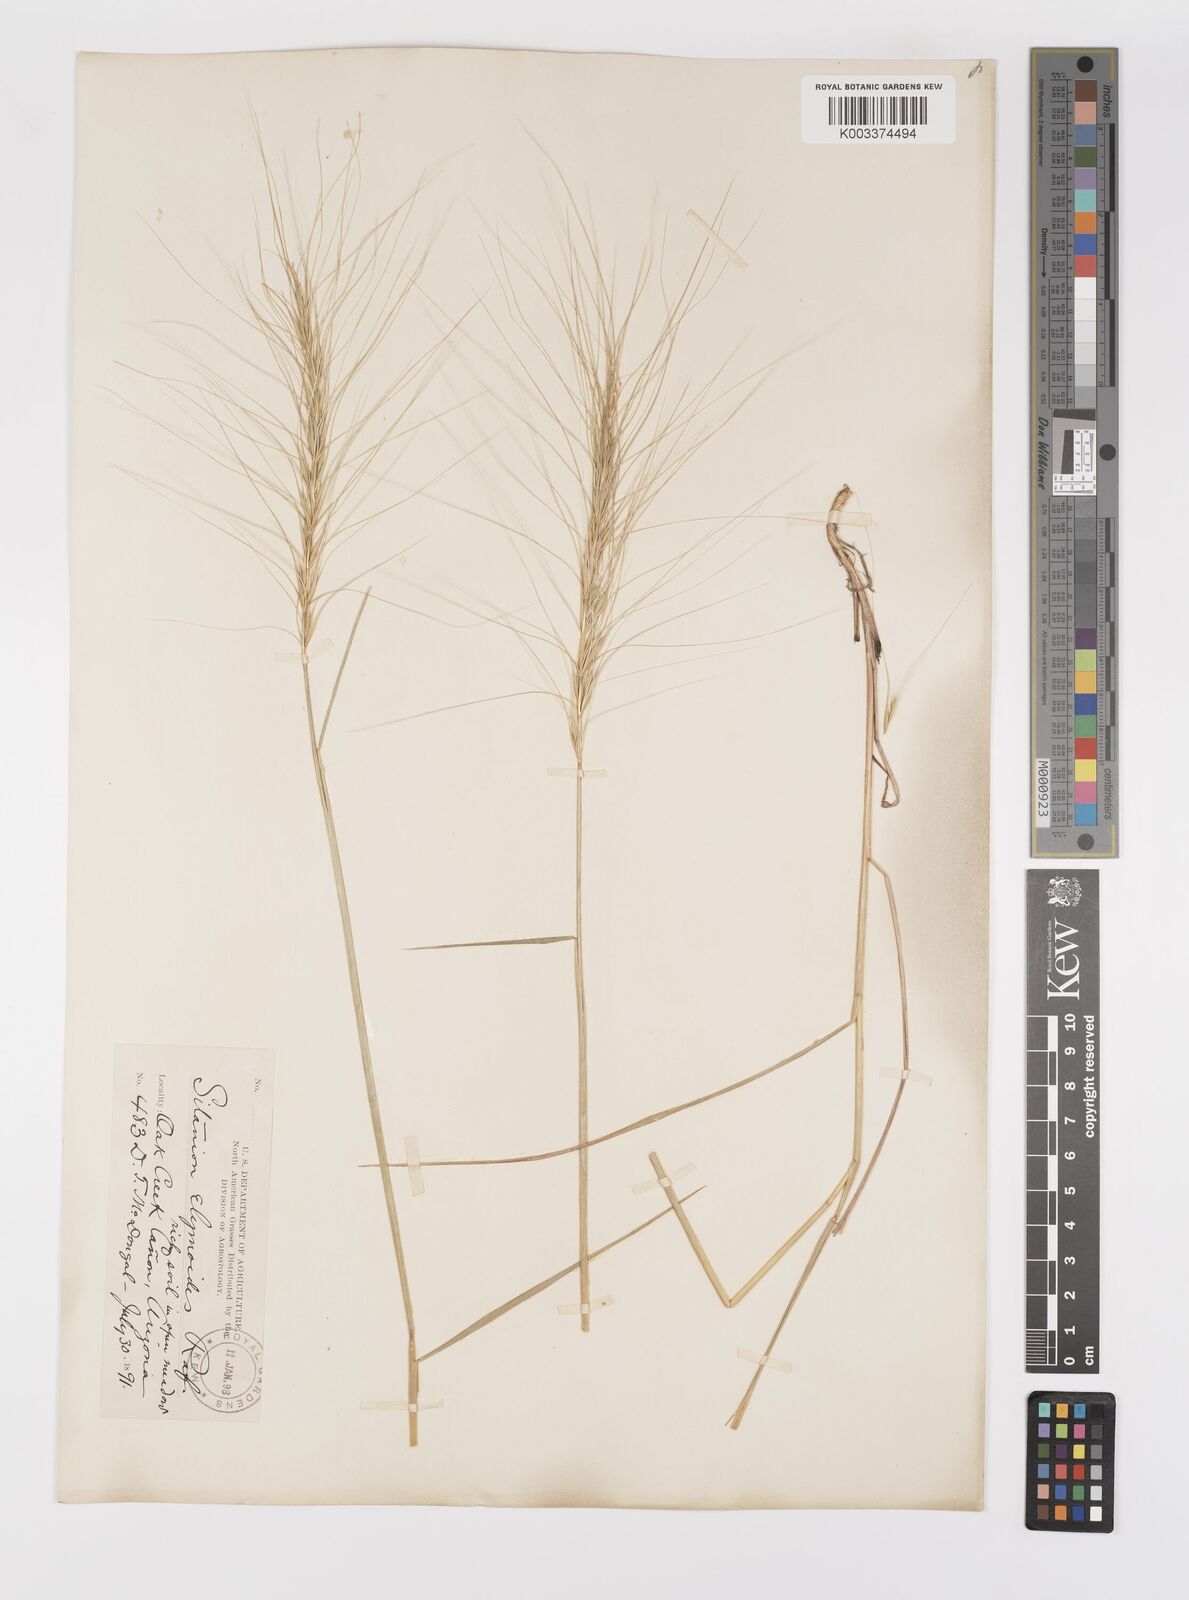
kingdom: Plantae
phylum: Tracheophyta
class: Liliopsida
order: Poales
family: Poaceae
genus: Elymus
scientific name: Elymus elymoides
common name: Bottlebrush squirreltail
